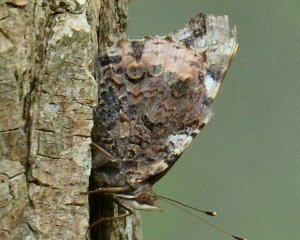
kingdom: Animalia
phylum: Arthropoda
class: Insecta
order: Lepidoptera
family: Nymphalidae
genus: Vanessa
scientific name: Vanessa atalanta
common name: Red Admiral
